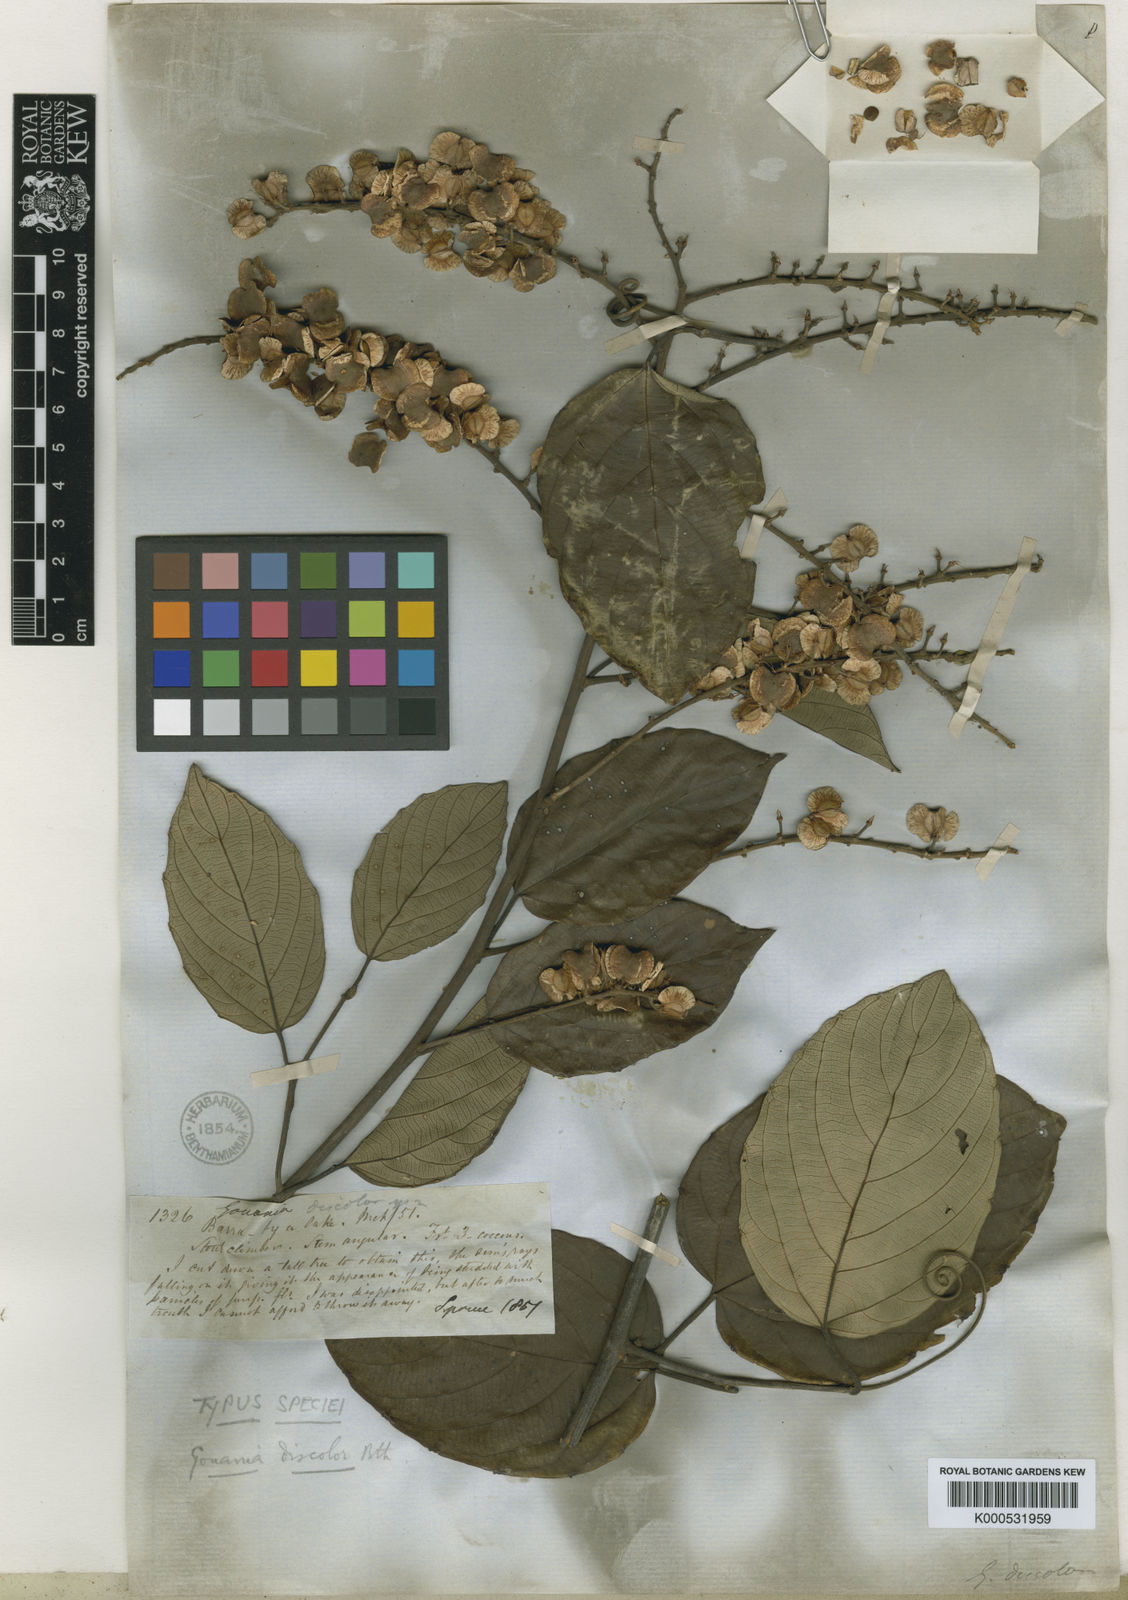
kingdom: Plantae
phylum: Tracheophyta
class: Magnoliopsida
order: Rosales
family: Rhamnaceae
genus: Gouania
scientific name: Gouania discolor
